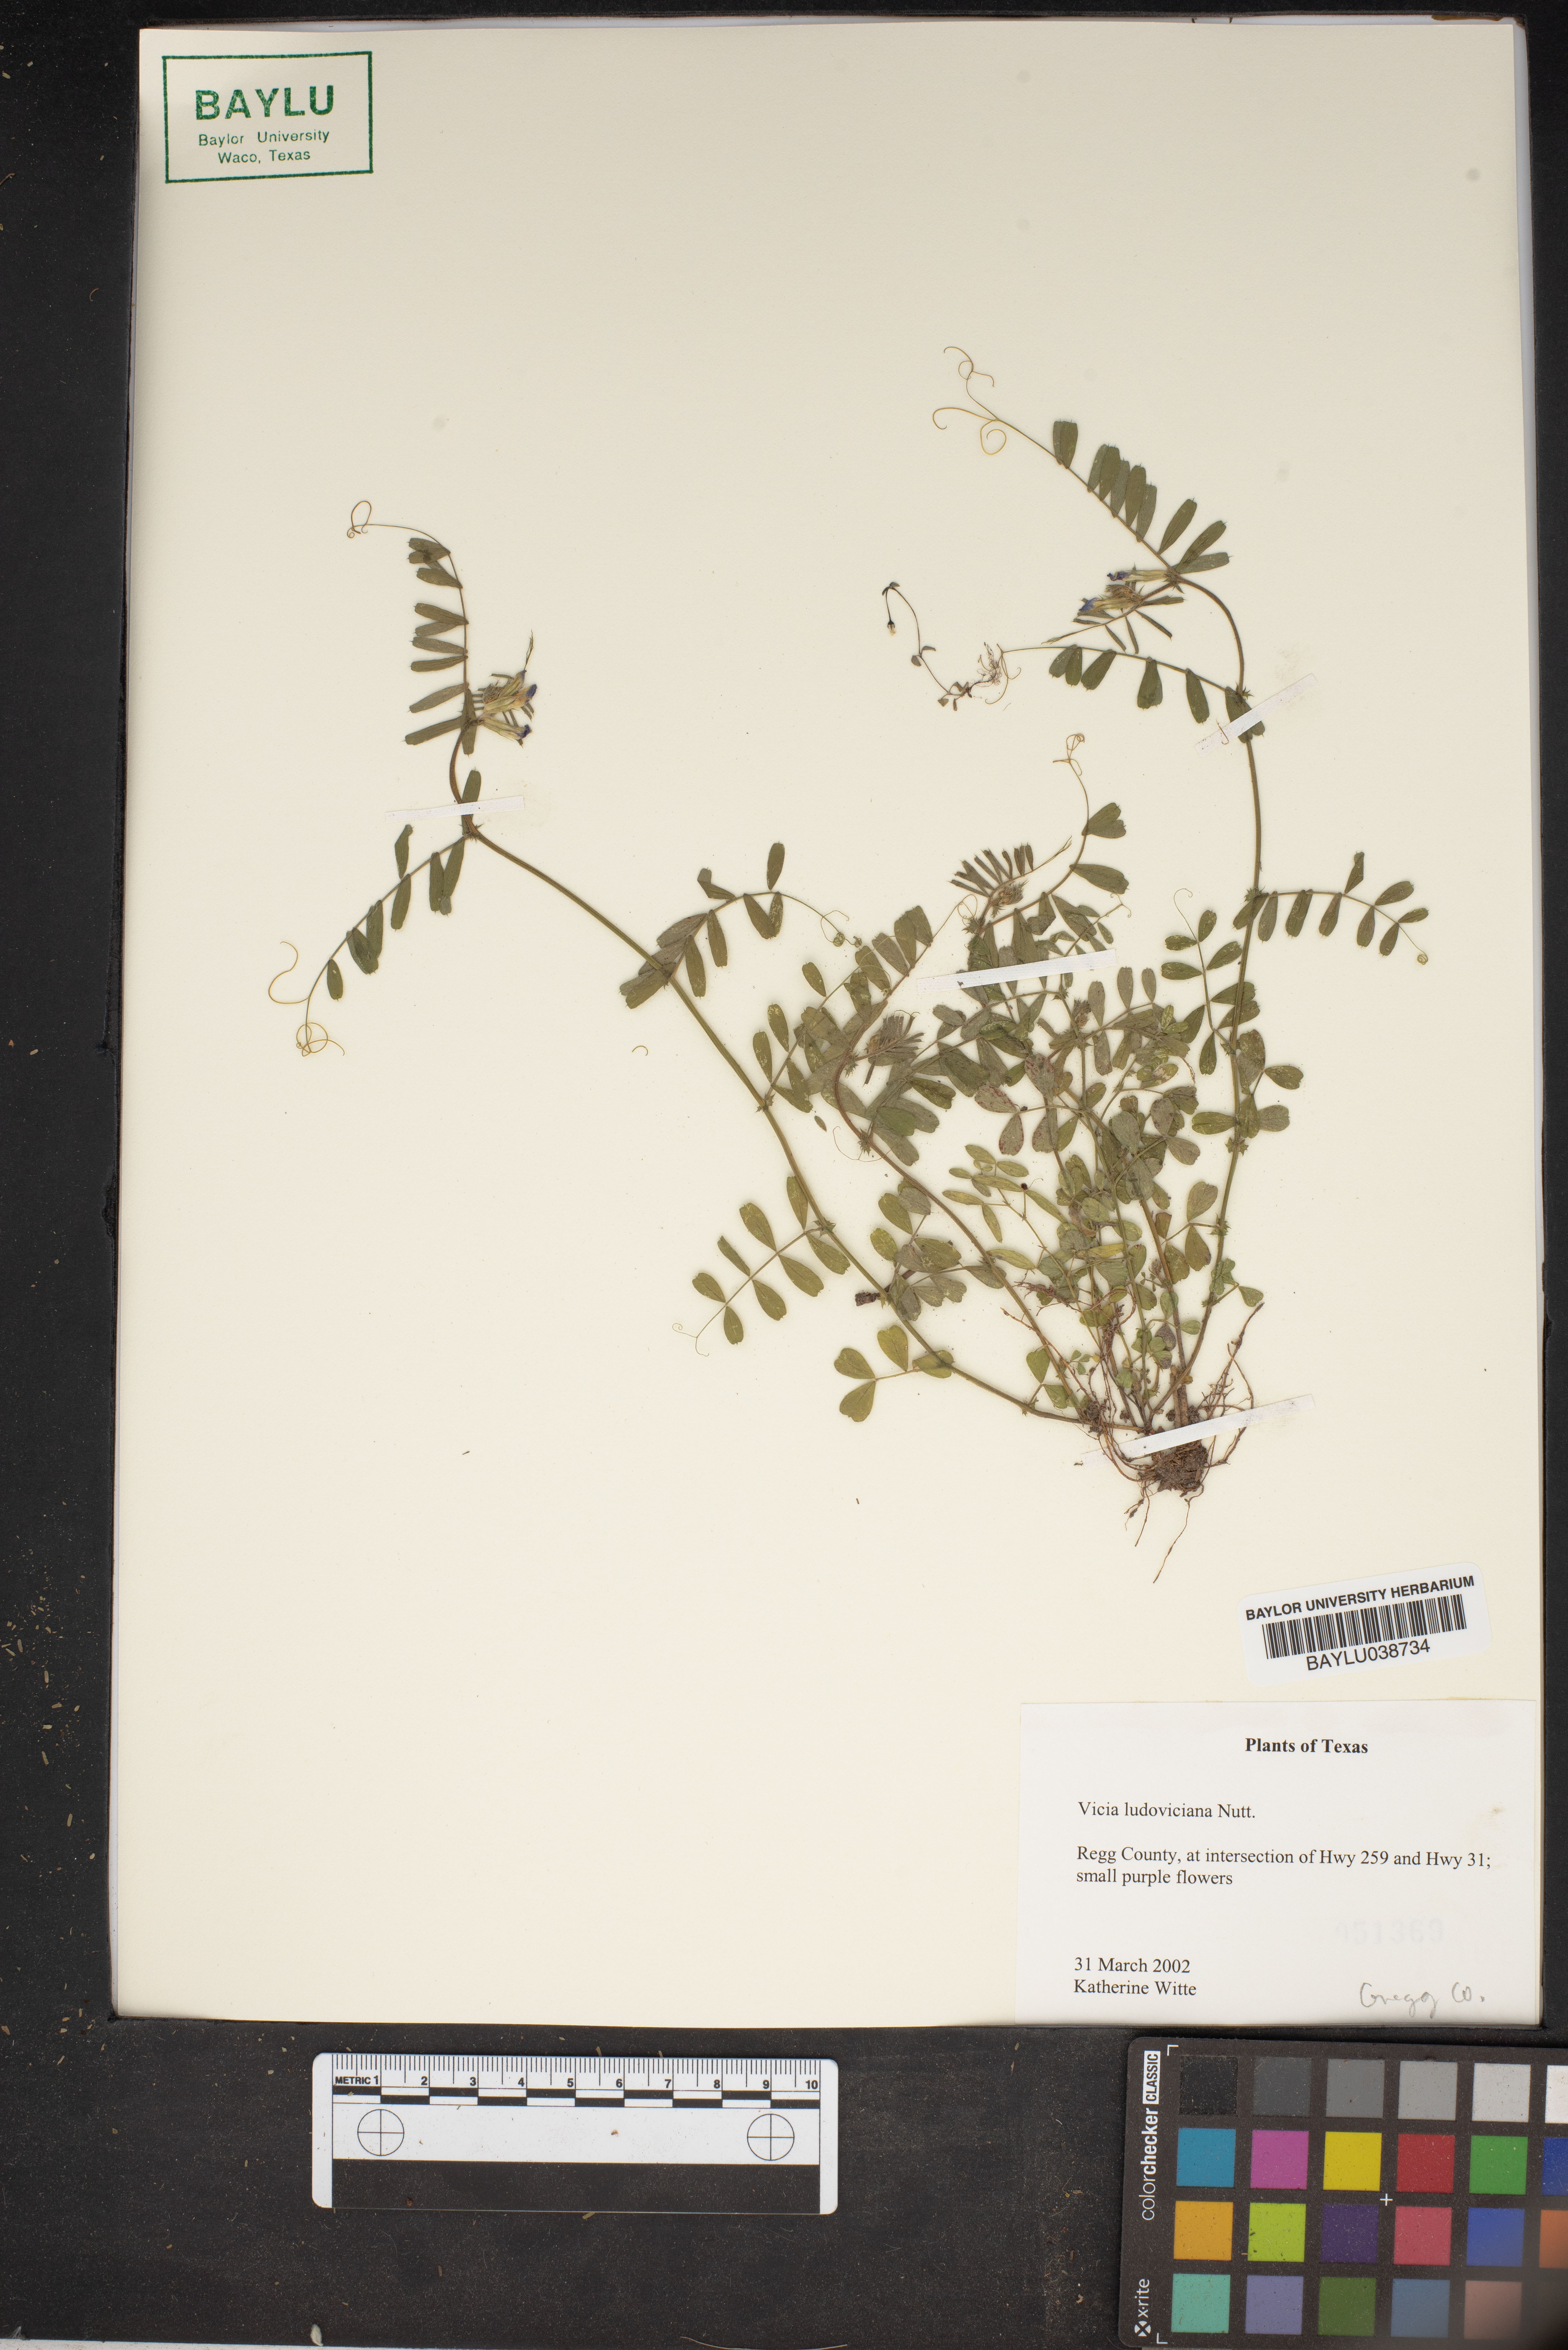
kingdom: Plantae
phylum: Tracheophyta
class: Magnoliopsida
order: Fabales
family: Fabaceae
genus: Vicia
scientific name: Vicia ludoviciana
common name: Louisiana vetch
